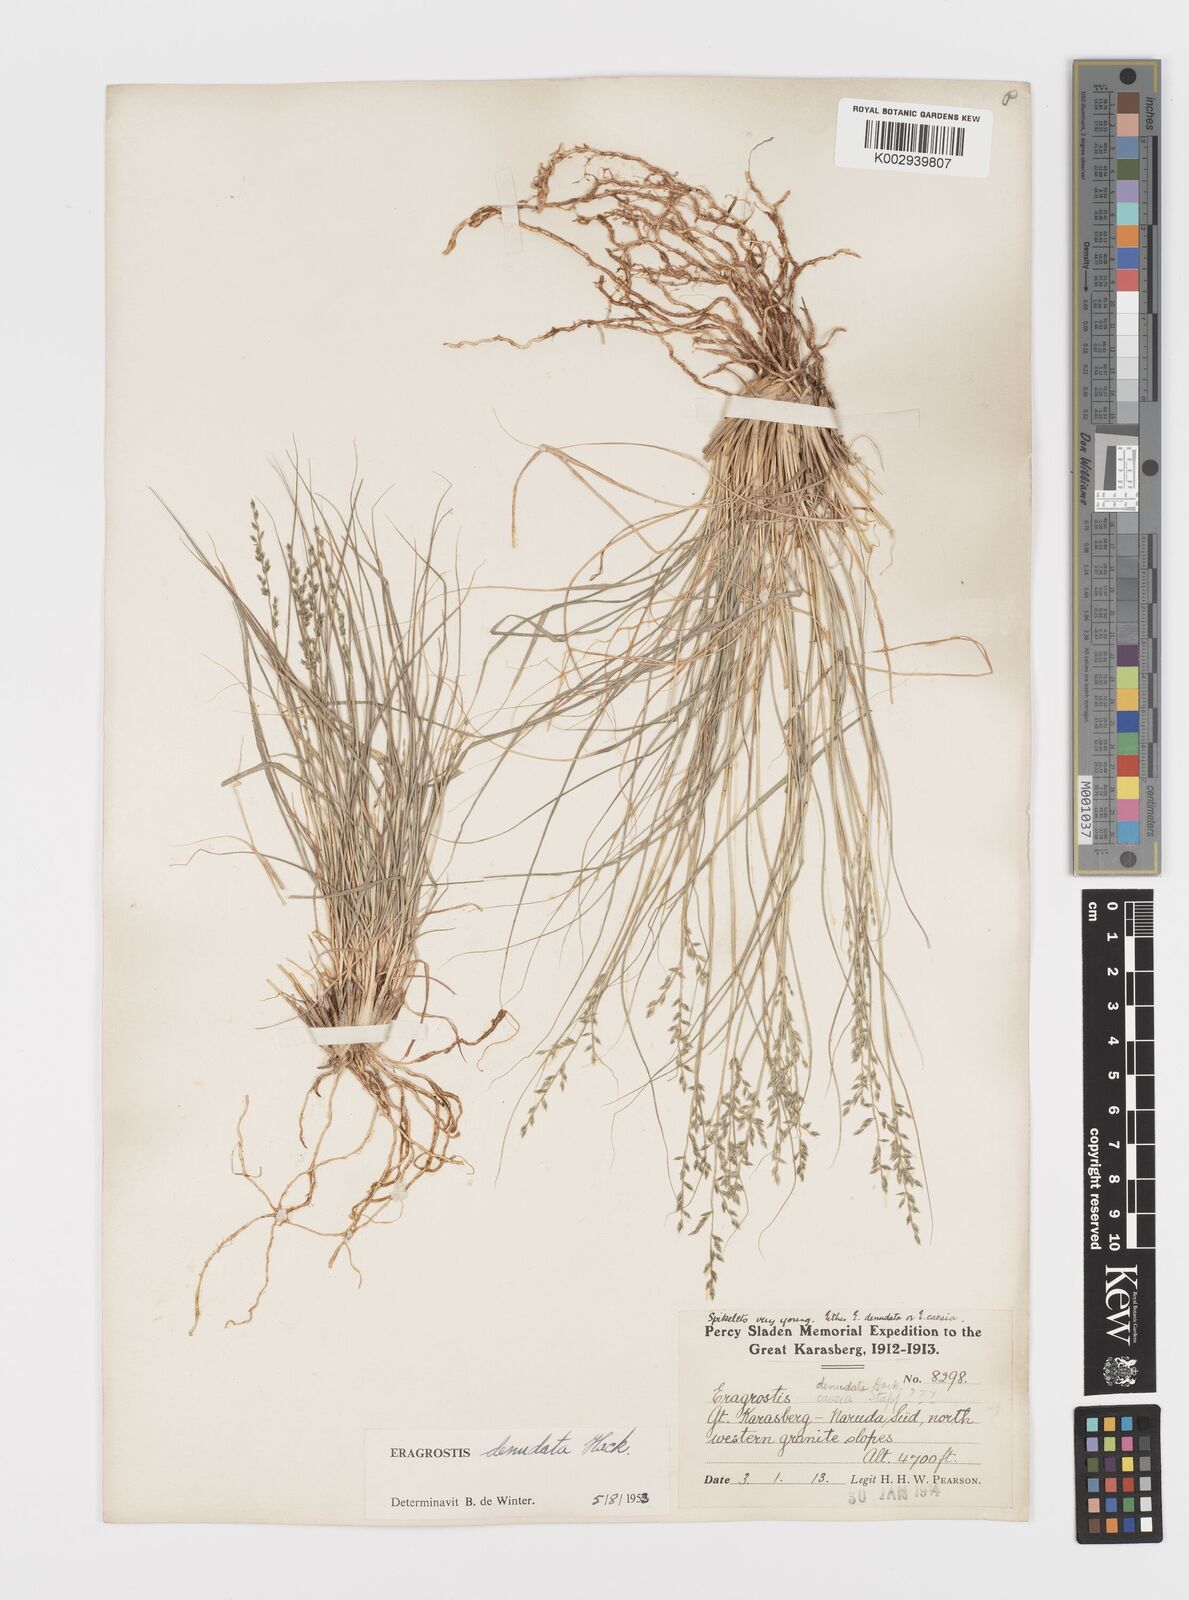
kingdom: Plantae
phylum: Tracheophyta
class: Liliopsida
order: Poales
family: Poaceae
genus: Eragrostis
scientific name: Eragrostis nindensis
